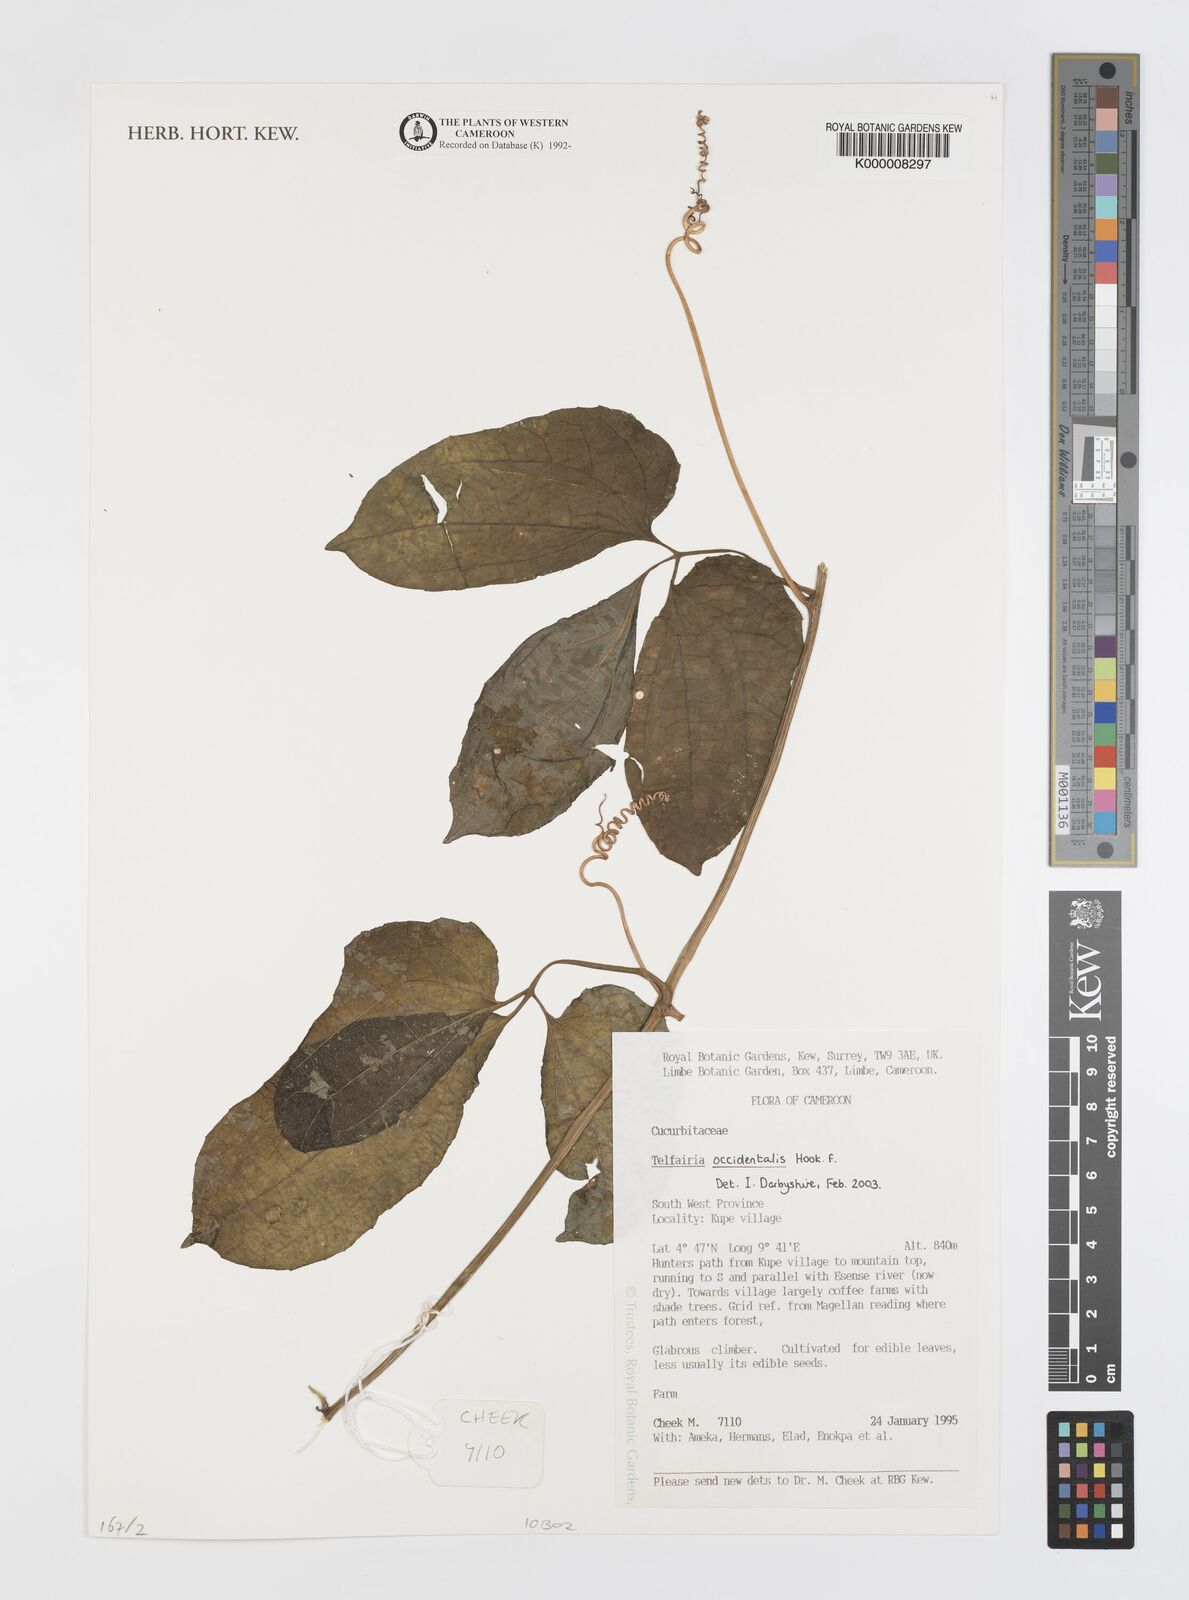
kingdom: Plantae
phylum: Tracheophyta
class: Magnoliopsida
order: Cucurbitales
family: Cucurbitaceae
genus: Telfairia
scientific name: Telfairia occidentalis
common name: Oysternut
